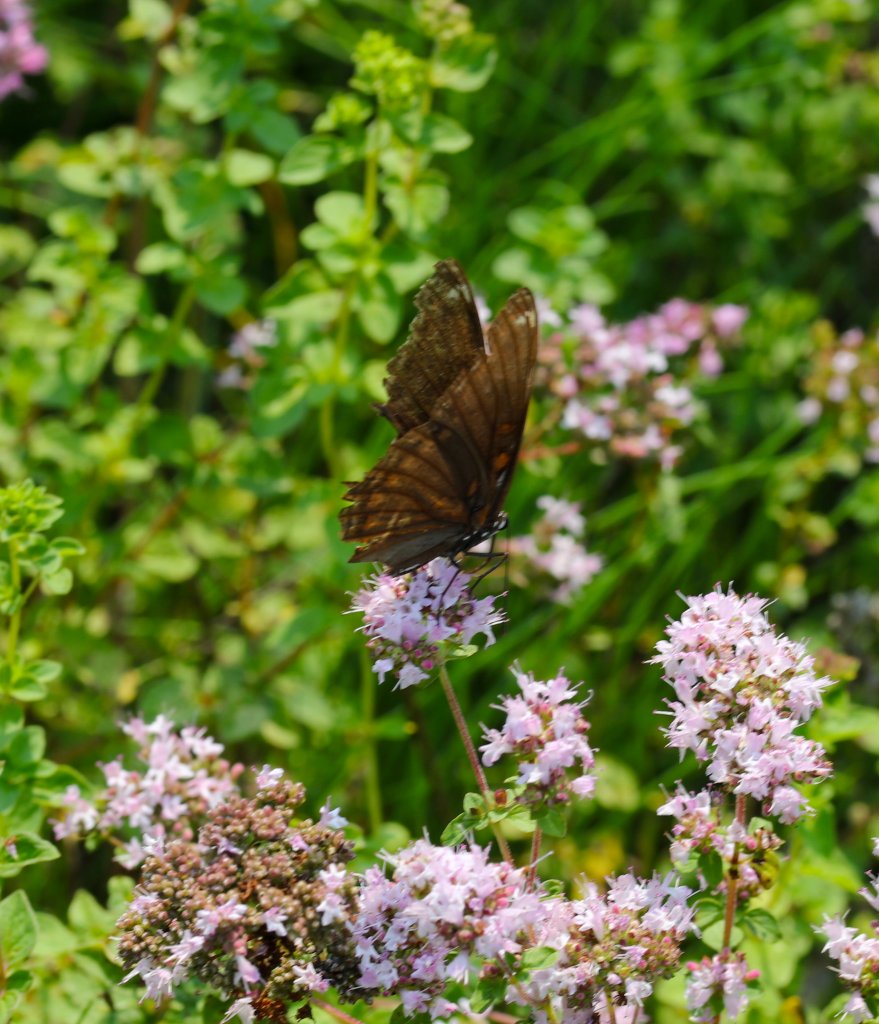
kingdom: Animalia
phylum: Arthropoda
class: Insecta
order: Lepidoptera
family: Nymphalidae
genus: Limenitis
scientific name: Limenitis arthemis
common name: Red-spotted Admiral
